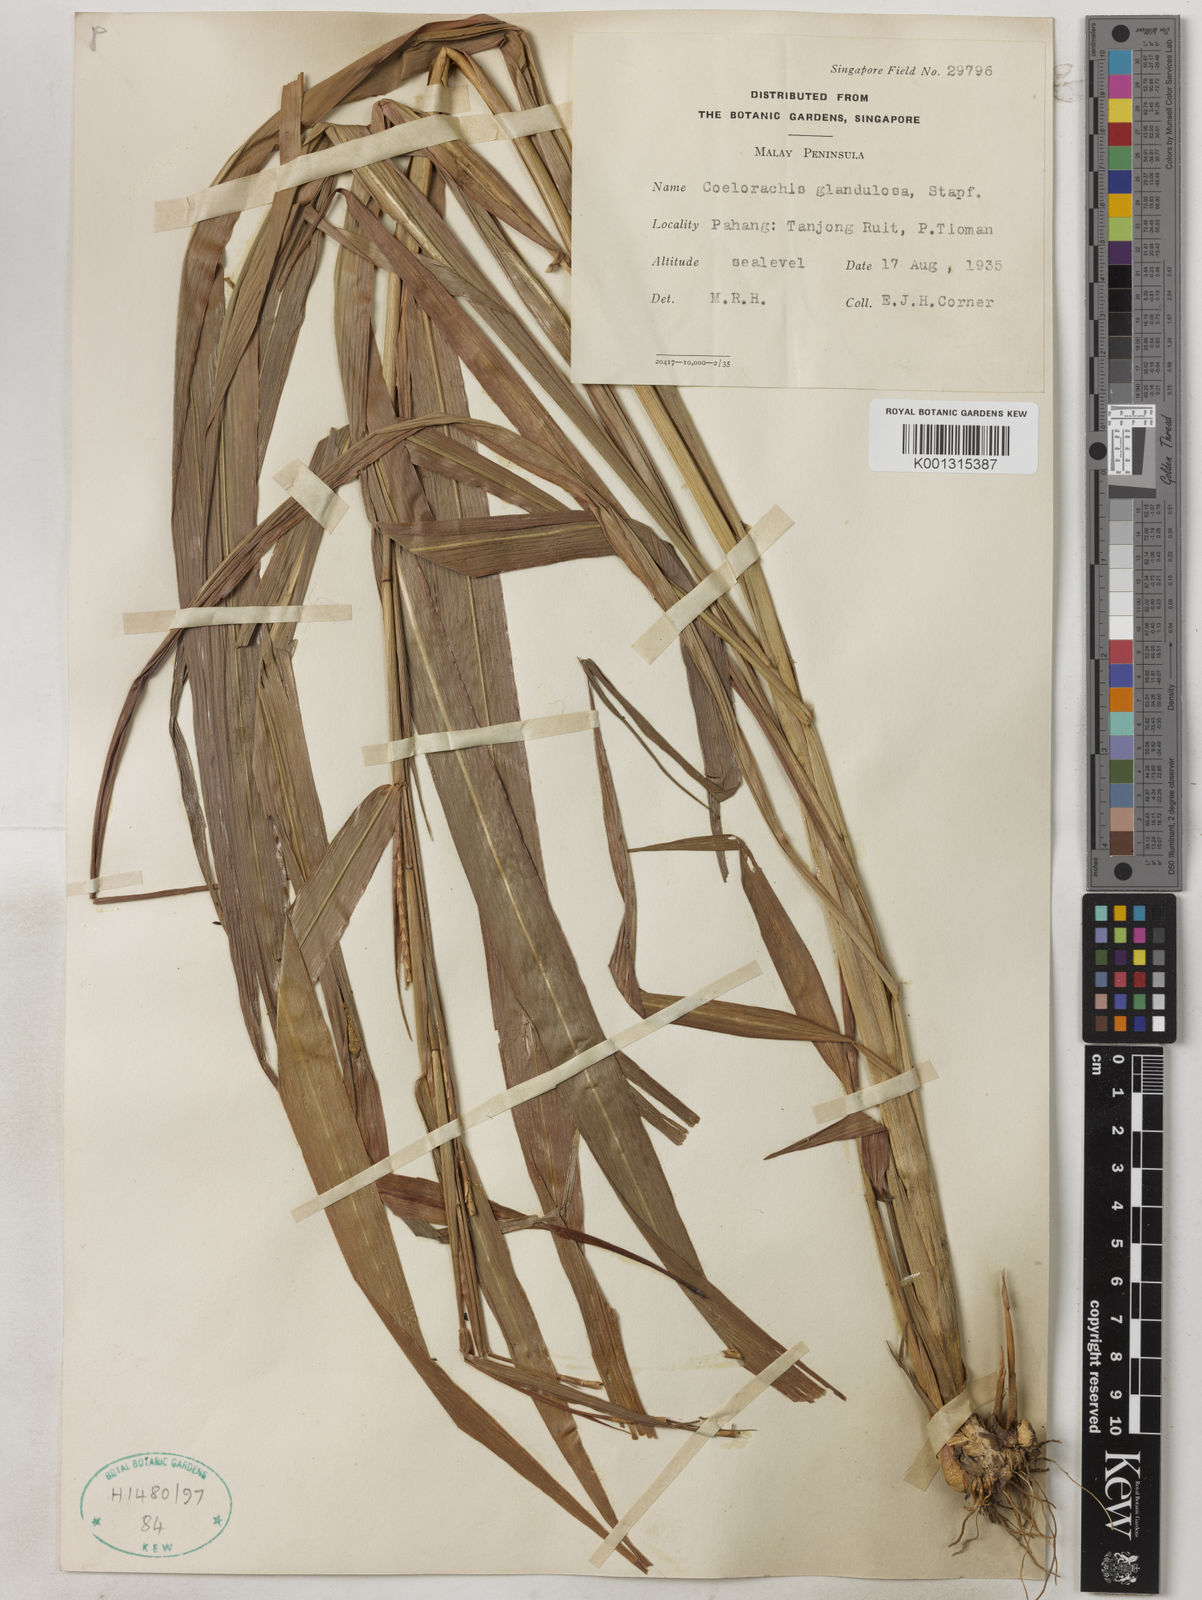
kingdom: Plantae
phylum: Tracheophyta
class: Liliopsida
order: Poales
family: Poaceae
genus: Rottboellia
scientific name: Rottboellia glandulosa
